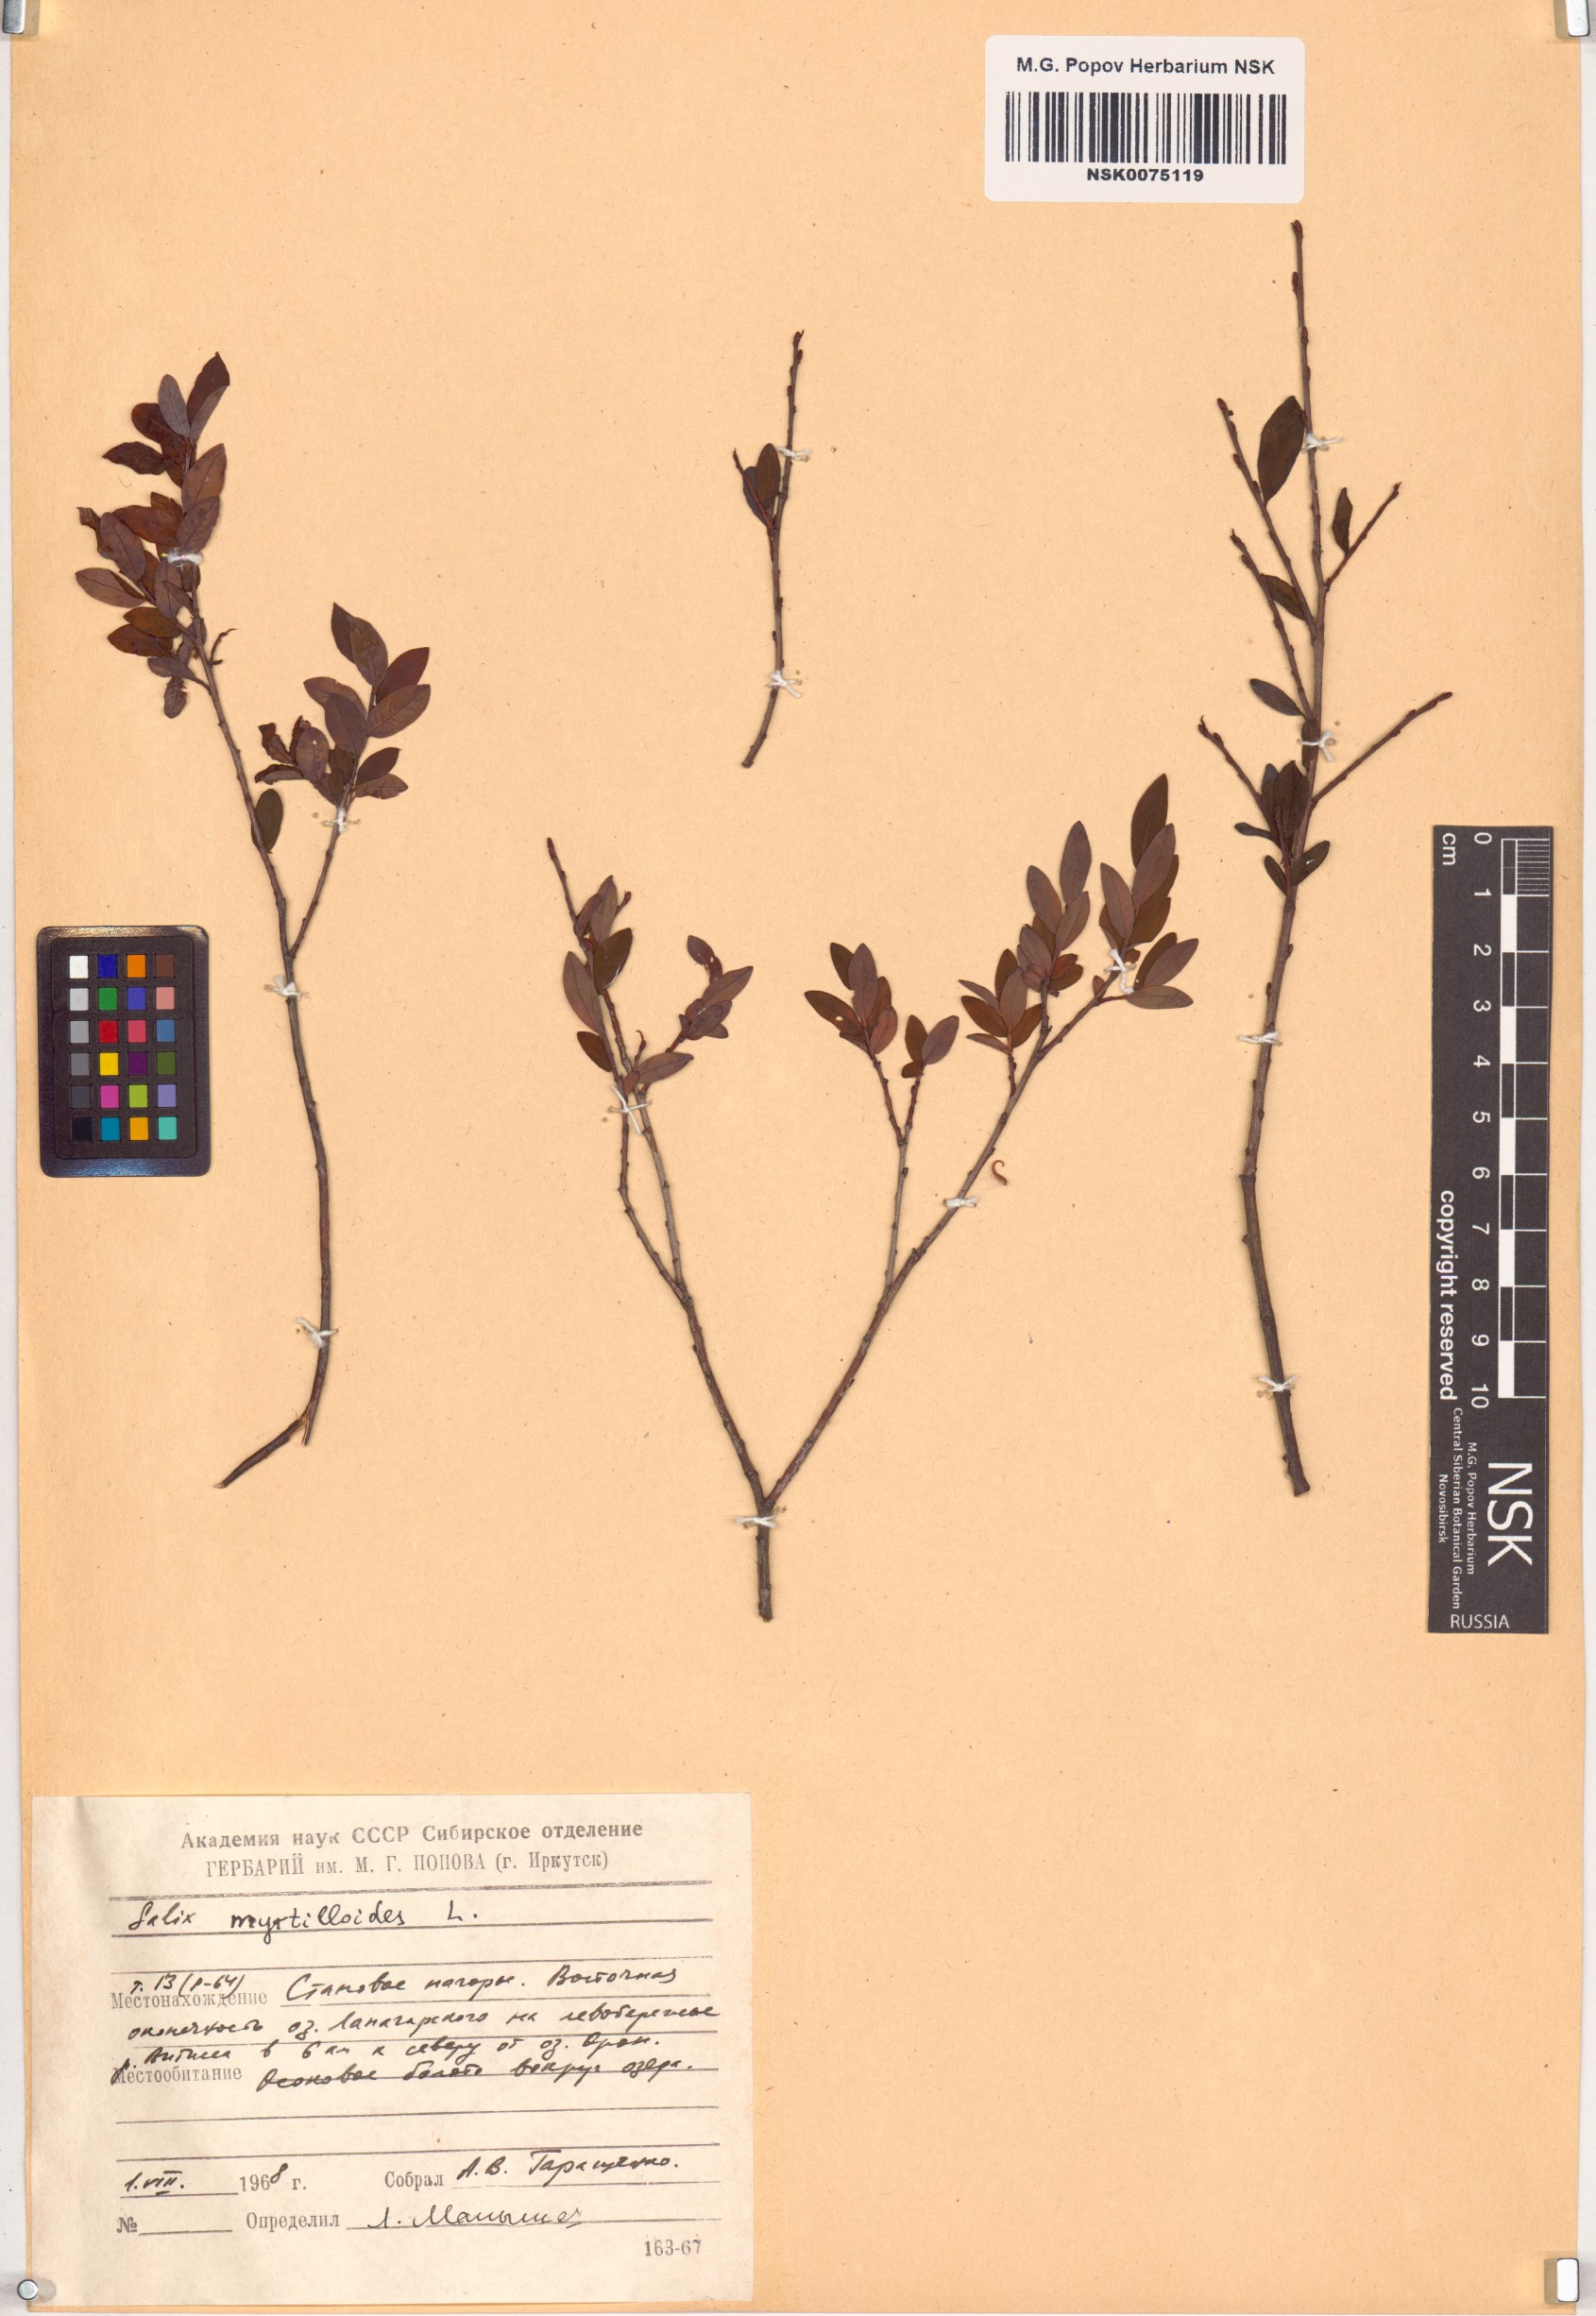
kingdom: Plantae
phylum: Tracheophyta
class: Magnoliopsida
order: Malpighiales
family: Salicaceae
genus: Salix
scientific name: Salix myrtilloides
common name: Myrtle-leaved willow
